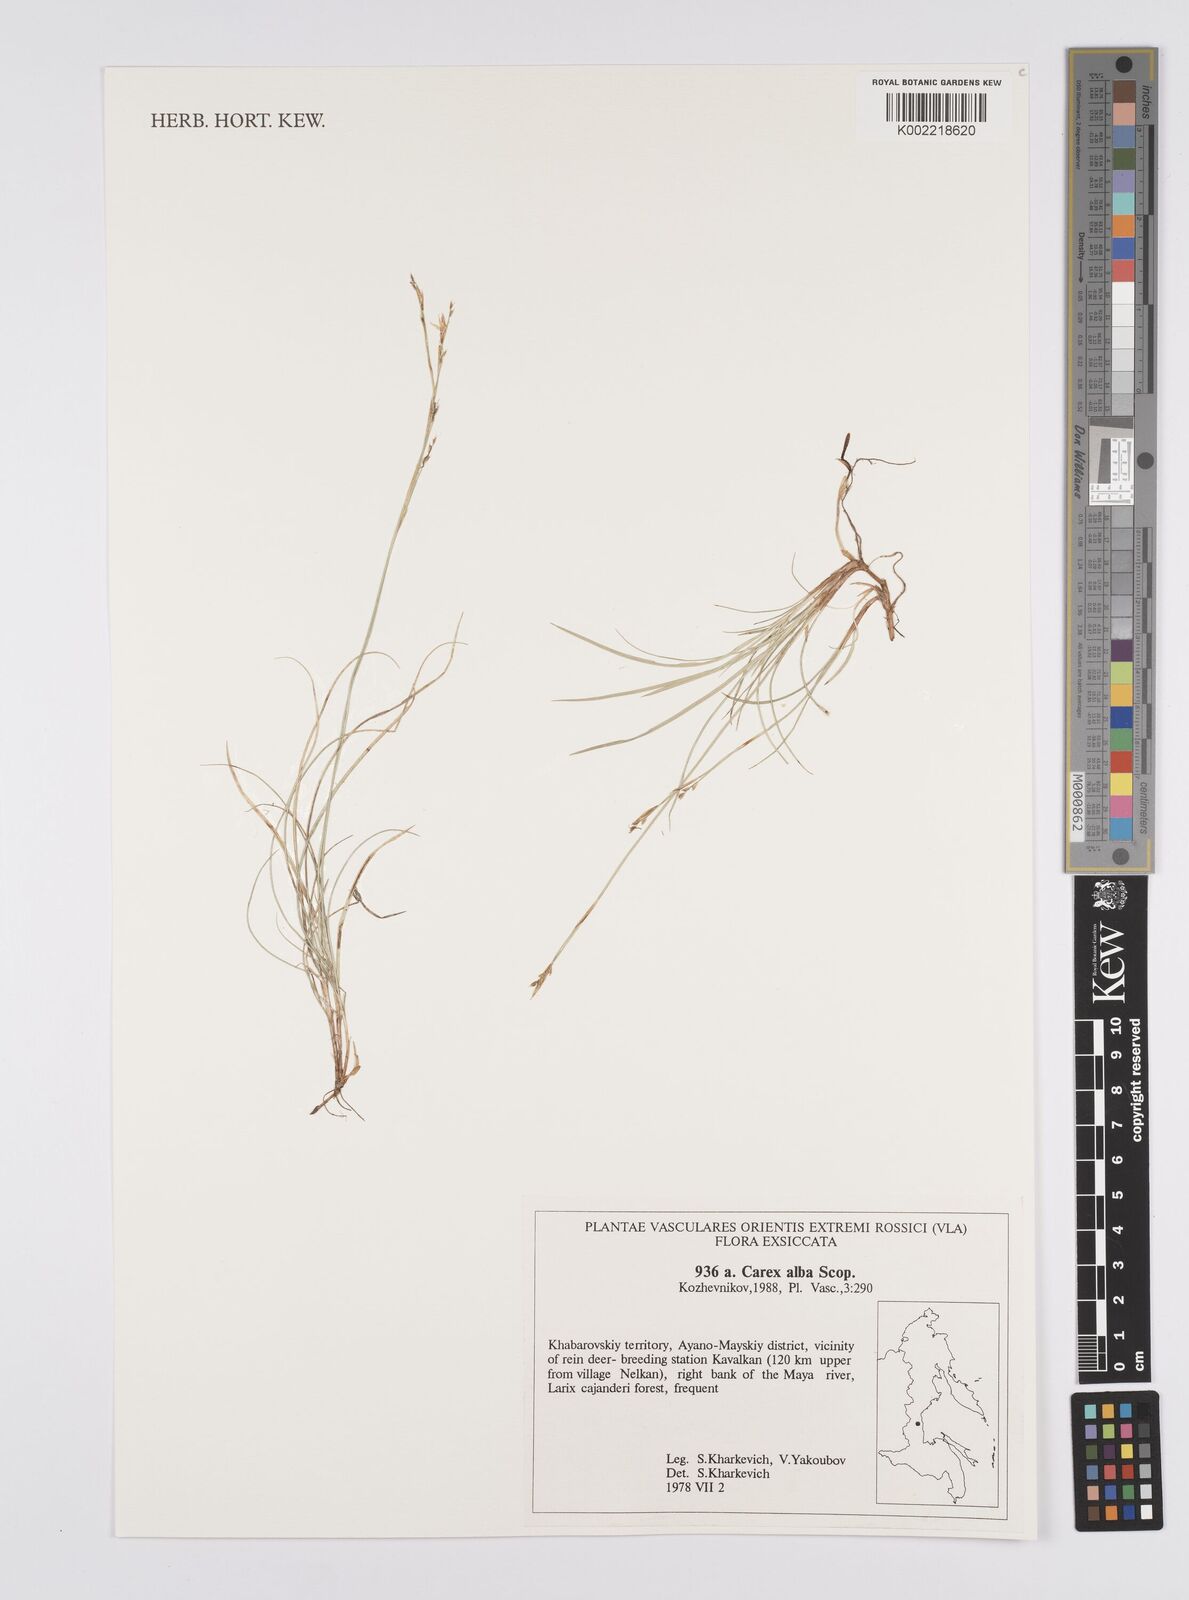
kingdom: Plantae
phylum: Tracheophyta
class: Liliopsida
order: Poales
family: Cyperaceae
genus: Carex
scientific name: Carex alba
